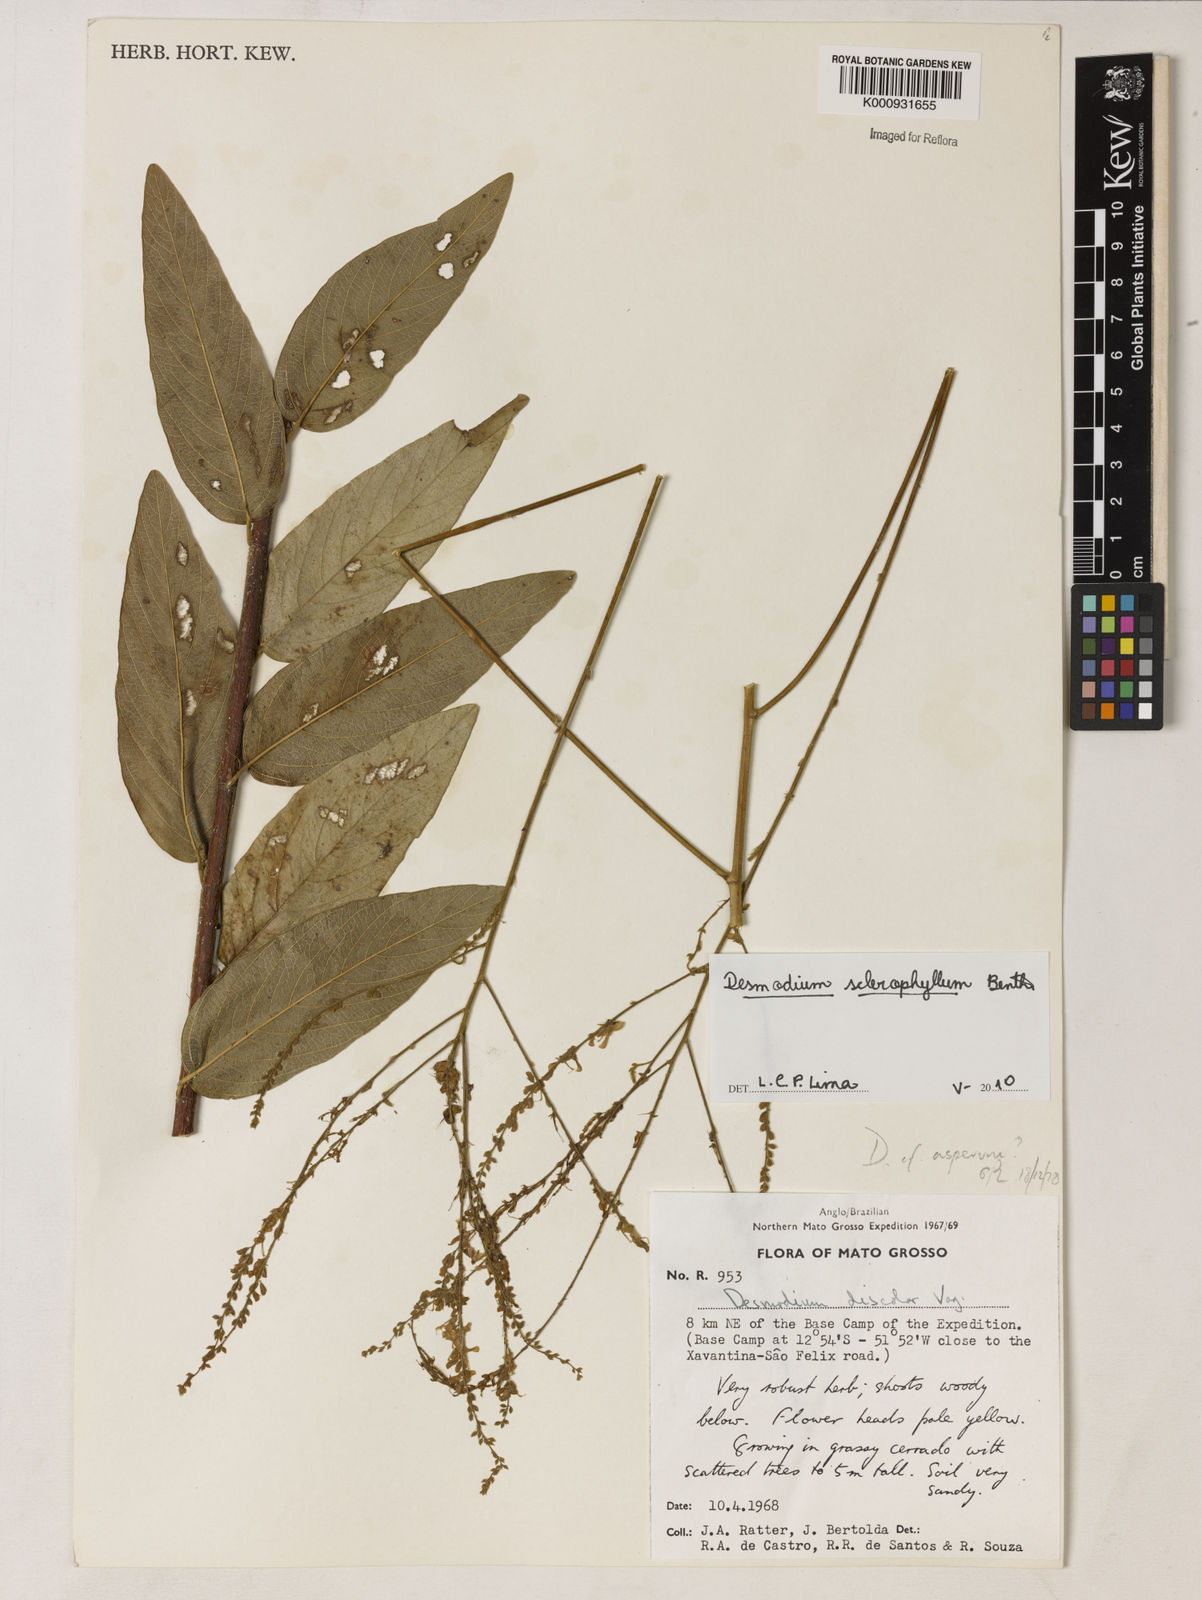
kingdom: Plantae
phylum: Tracheophyta
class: Magnoliopsida
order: Fabales
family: Fabaceae
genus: Desmodium
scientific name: Desmodium sclerophyllum
